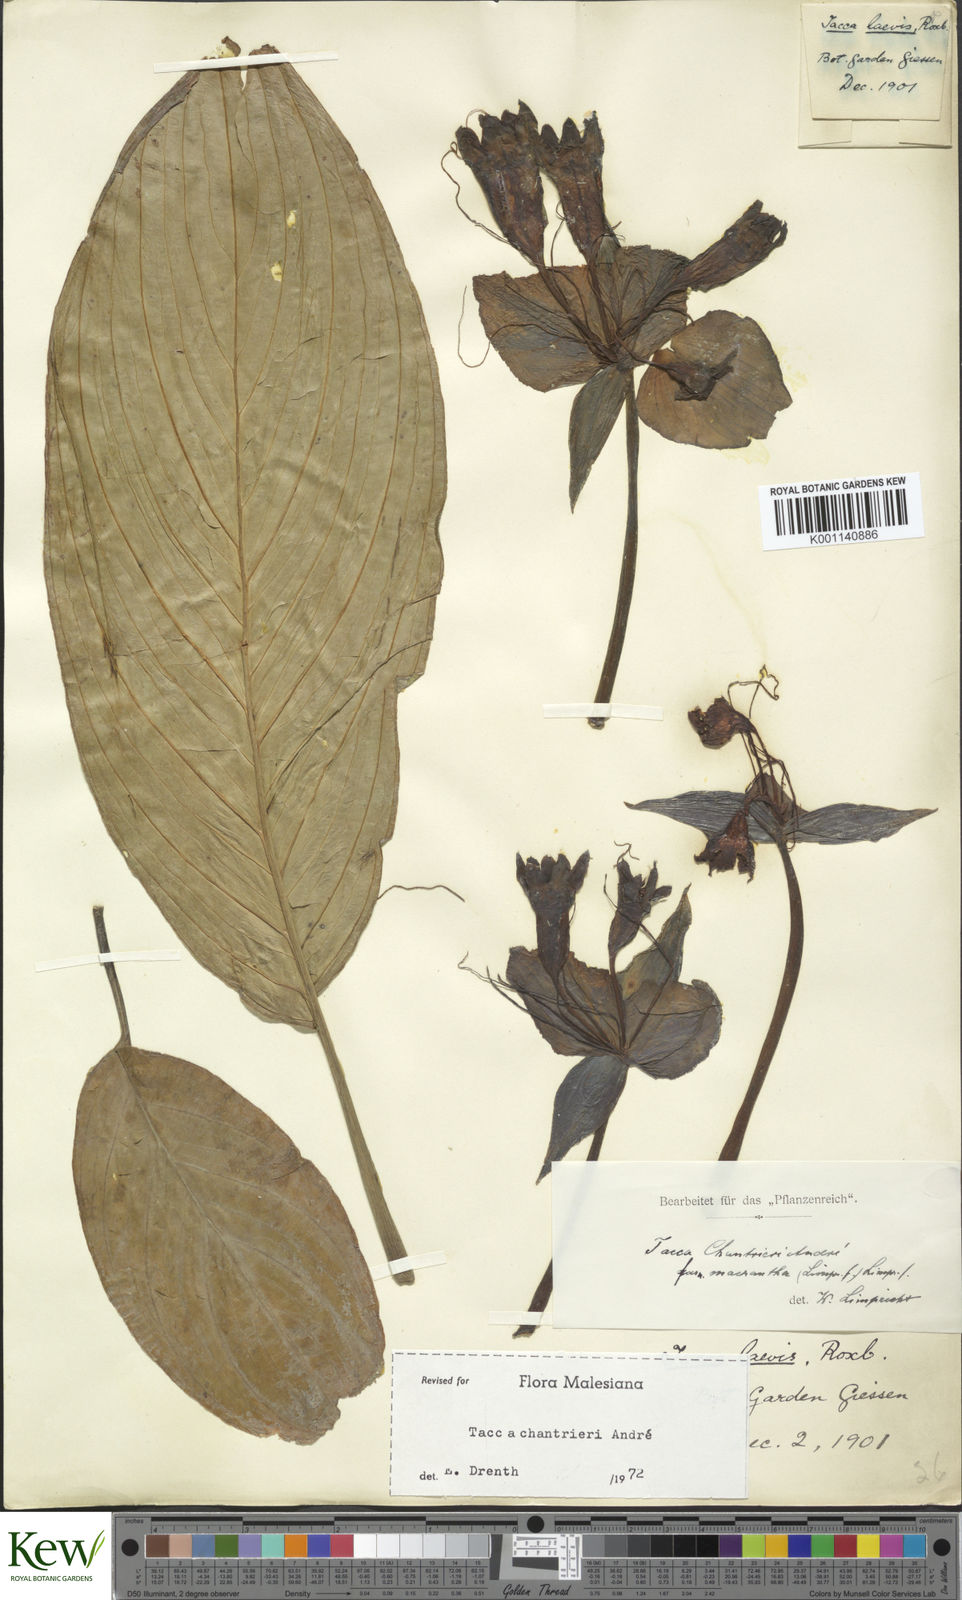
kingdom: Plantae
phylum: Tracheophyta
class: Liliopsida
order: Dioscoreales
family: Dioscoreaceae
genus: Tacca
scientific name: Tacca
